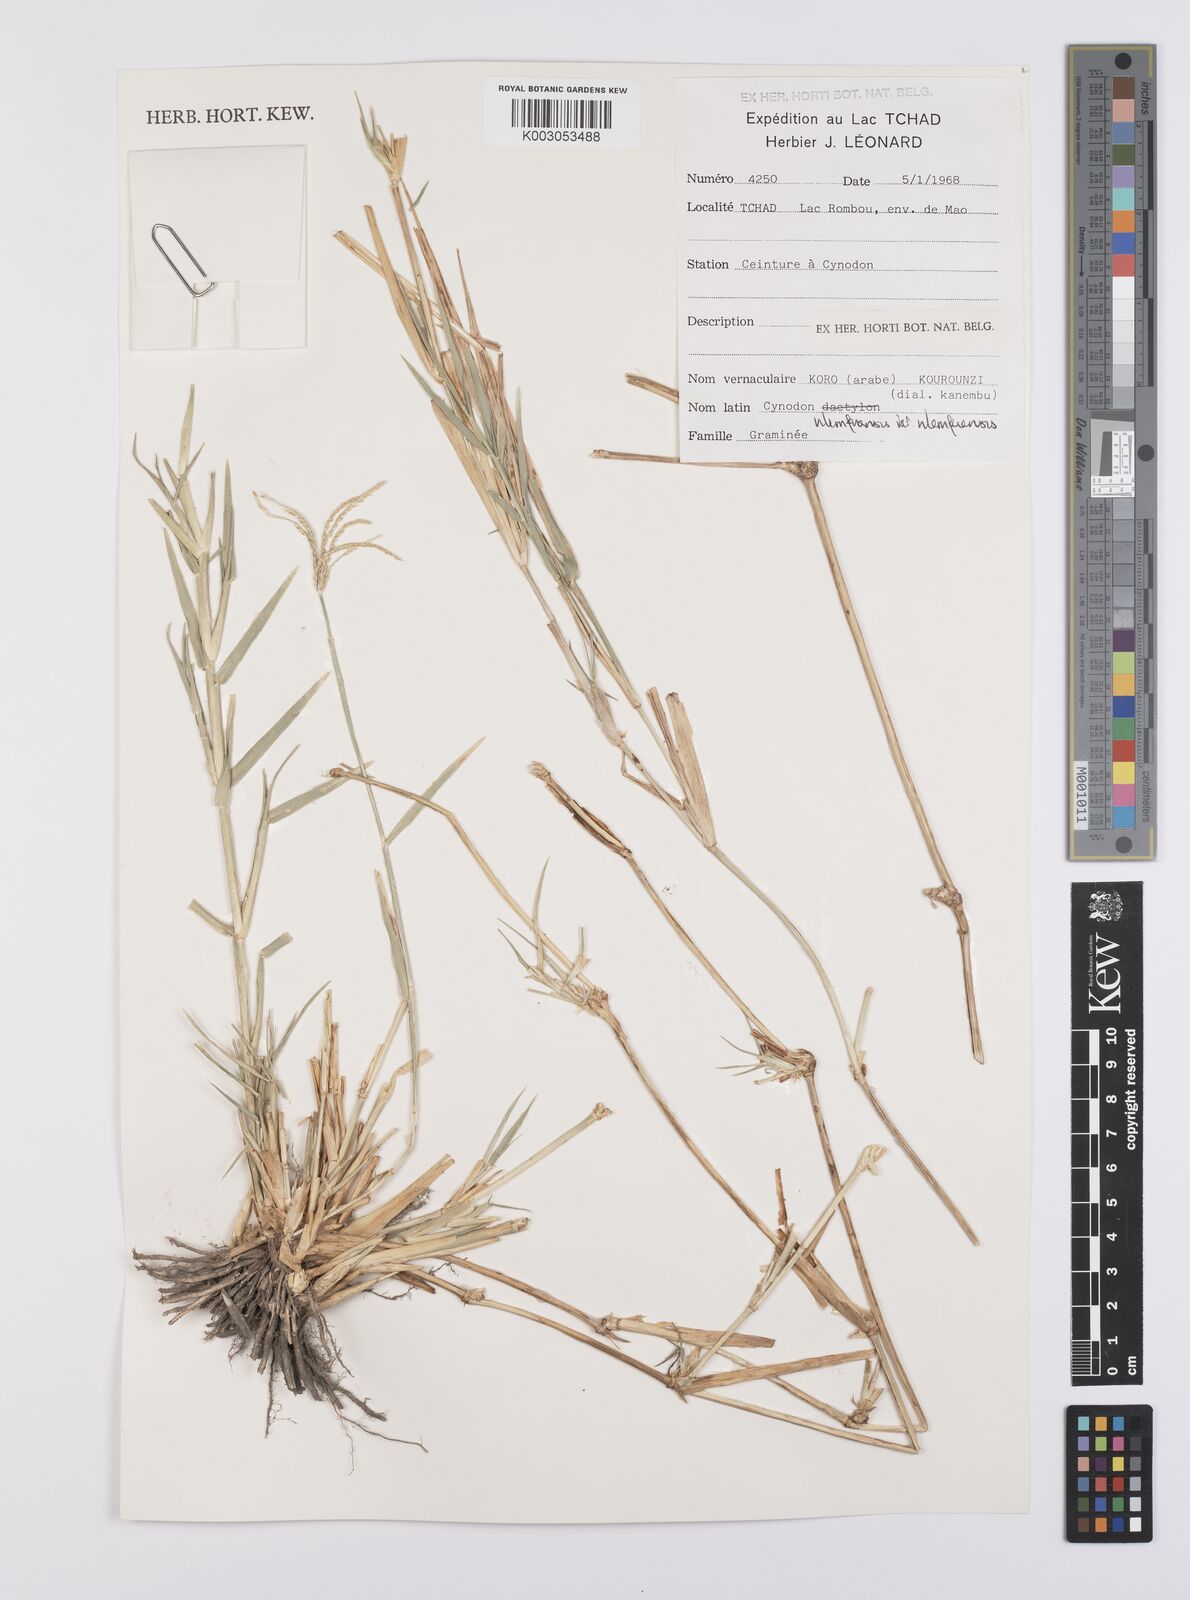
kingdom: Plantae
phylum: Tracheophyta
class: Liliopsida
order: Poales
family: Poaceae
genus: Cynodon
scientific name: Cynodon nlemfuensis
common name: African bermudagrass
